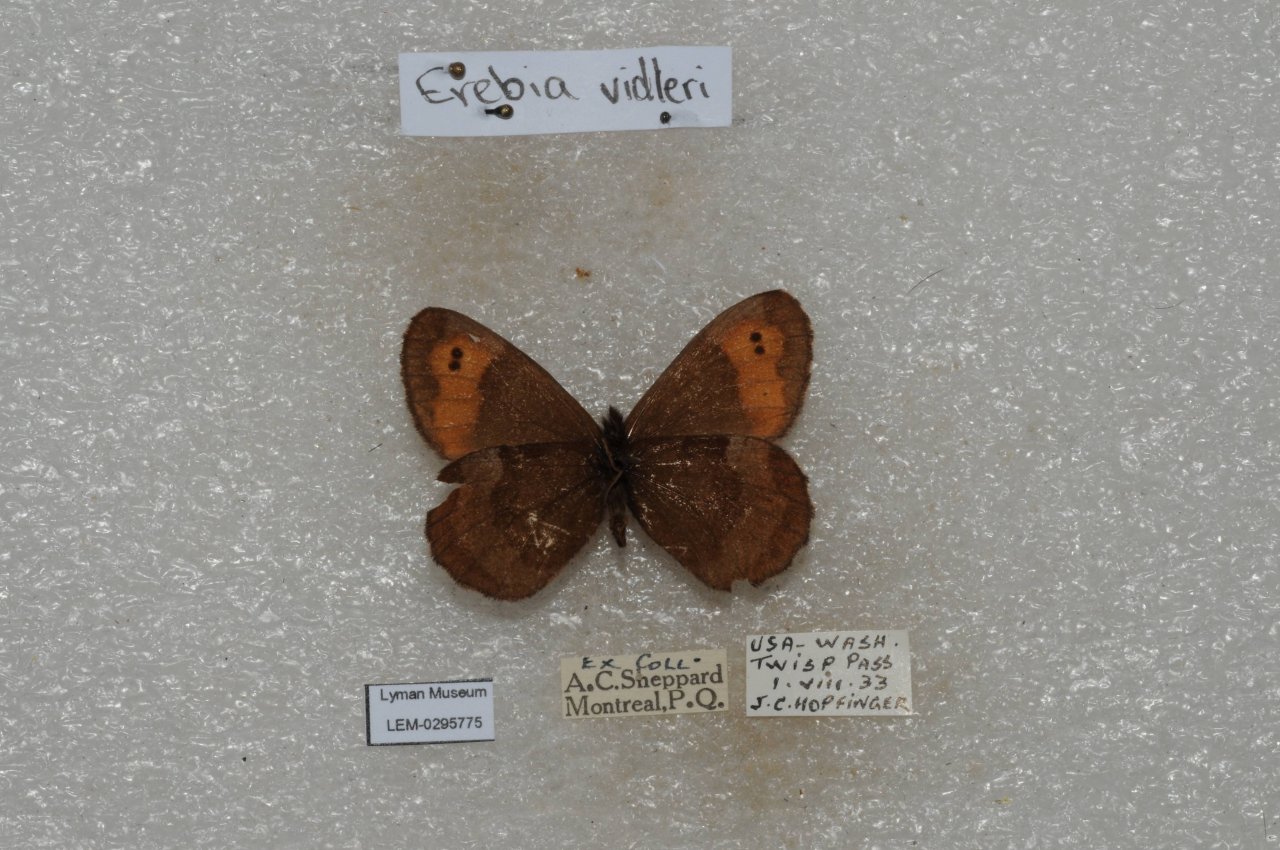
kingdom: Animalia
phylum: Arthropoda
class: Insecta
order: Lepidoptera
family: Nymphalidae
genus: Erebia
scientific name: Erebia vidleri
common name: Vidler's Alpine
